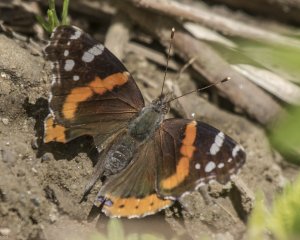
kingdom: Animalia
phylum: Arthropoda
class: Insecta
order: Lepidoptera
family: Nymphalidae
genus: Vanessa
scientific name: Vanessa atalanta
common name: Red Admiral
